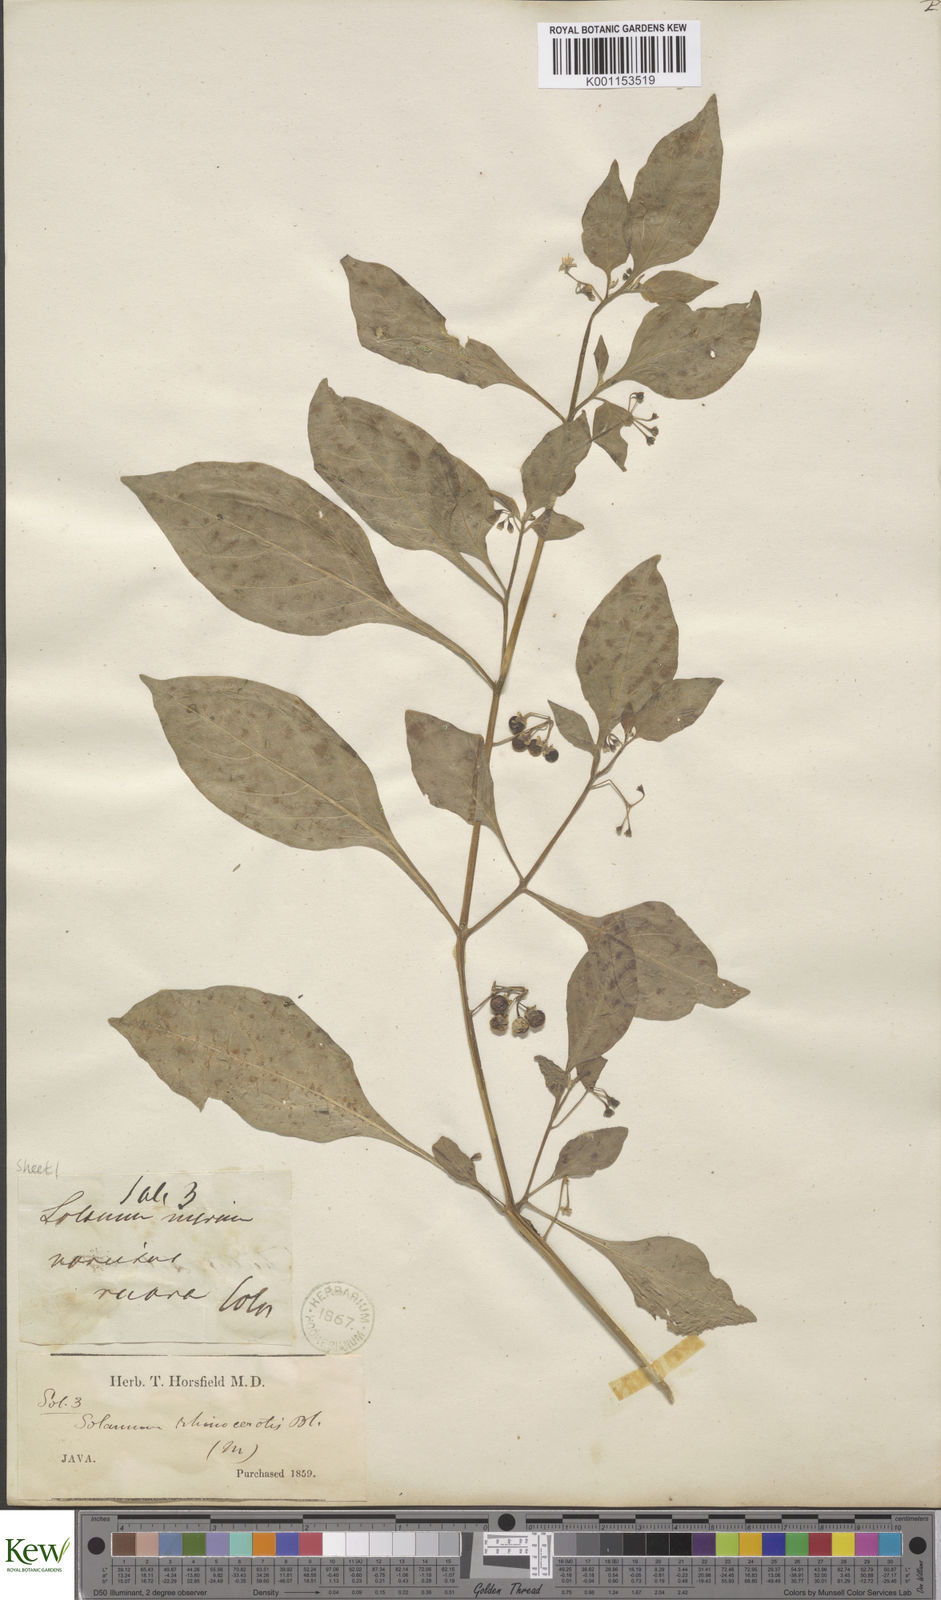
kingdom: Plantae
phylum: Tracheophyta
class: Magnoliopsida
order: Solanales
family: Solanaceae
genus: Solanum
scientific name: Solanum nigrum
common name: Black nightshade
